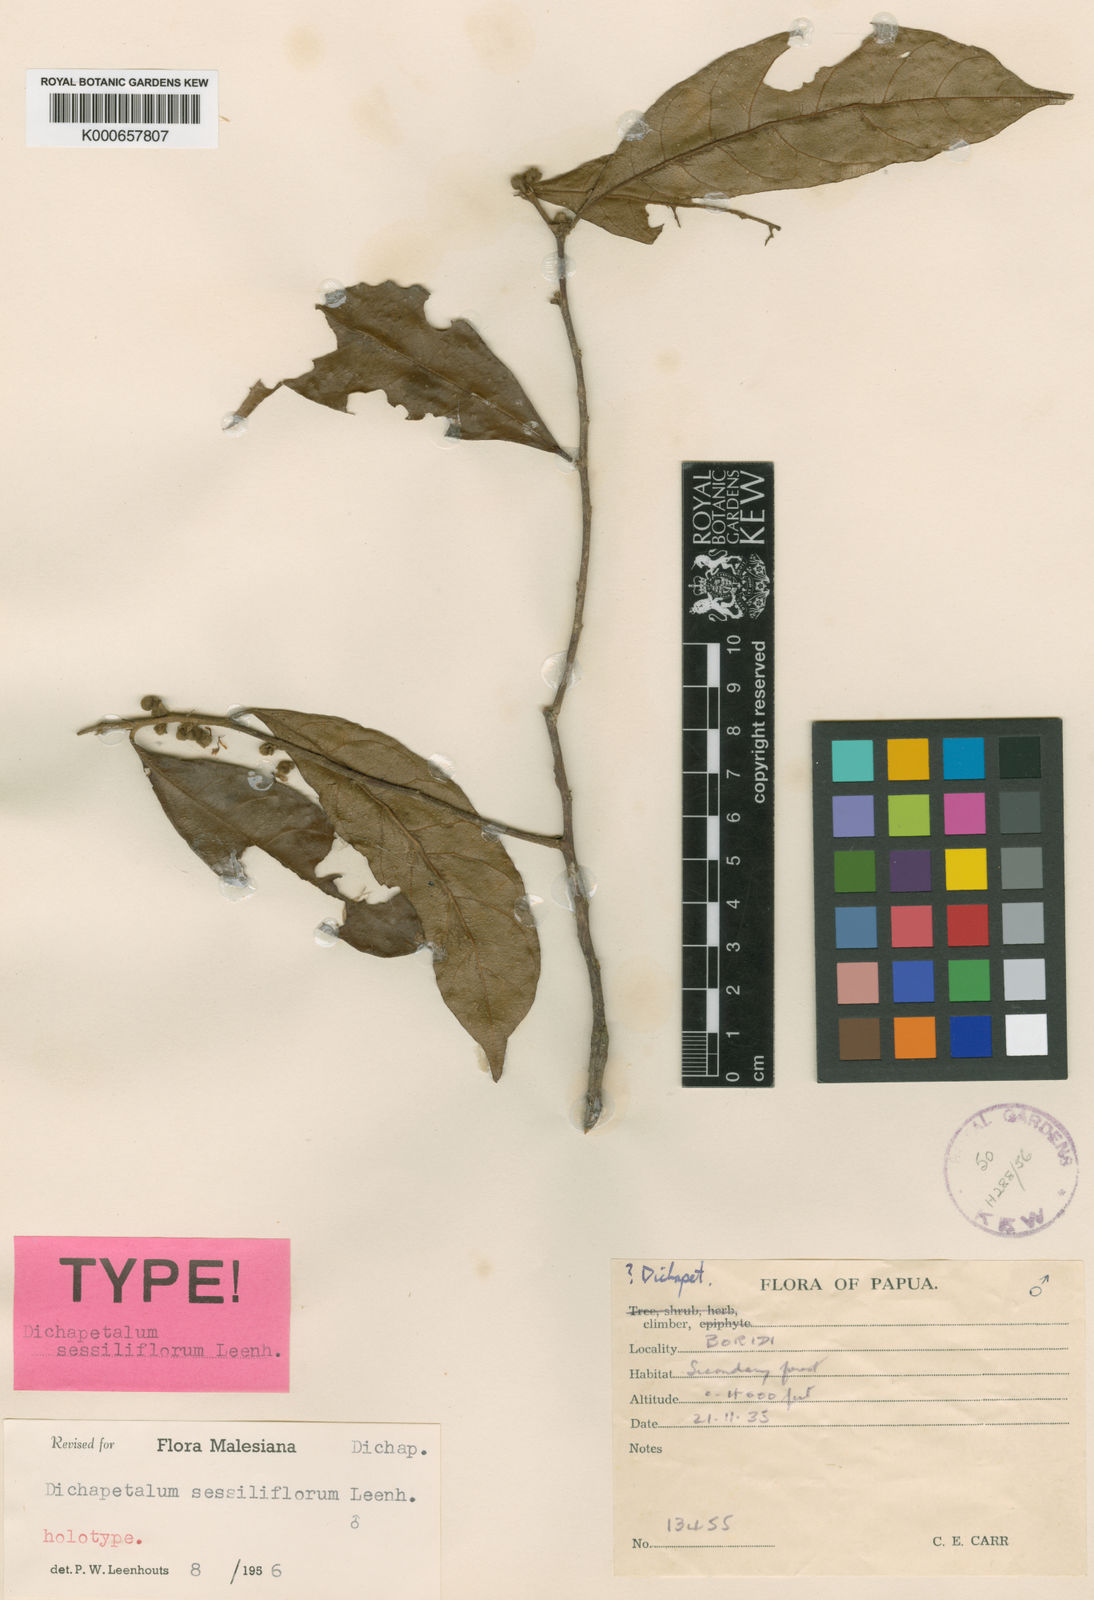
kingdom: Plantae
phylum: Tracheophyta
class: Magnoliopsida
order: Malpighiales
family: Dichapetalaceae
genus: Dichapetalum
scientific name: Dichapetalum sessiliflorum
